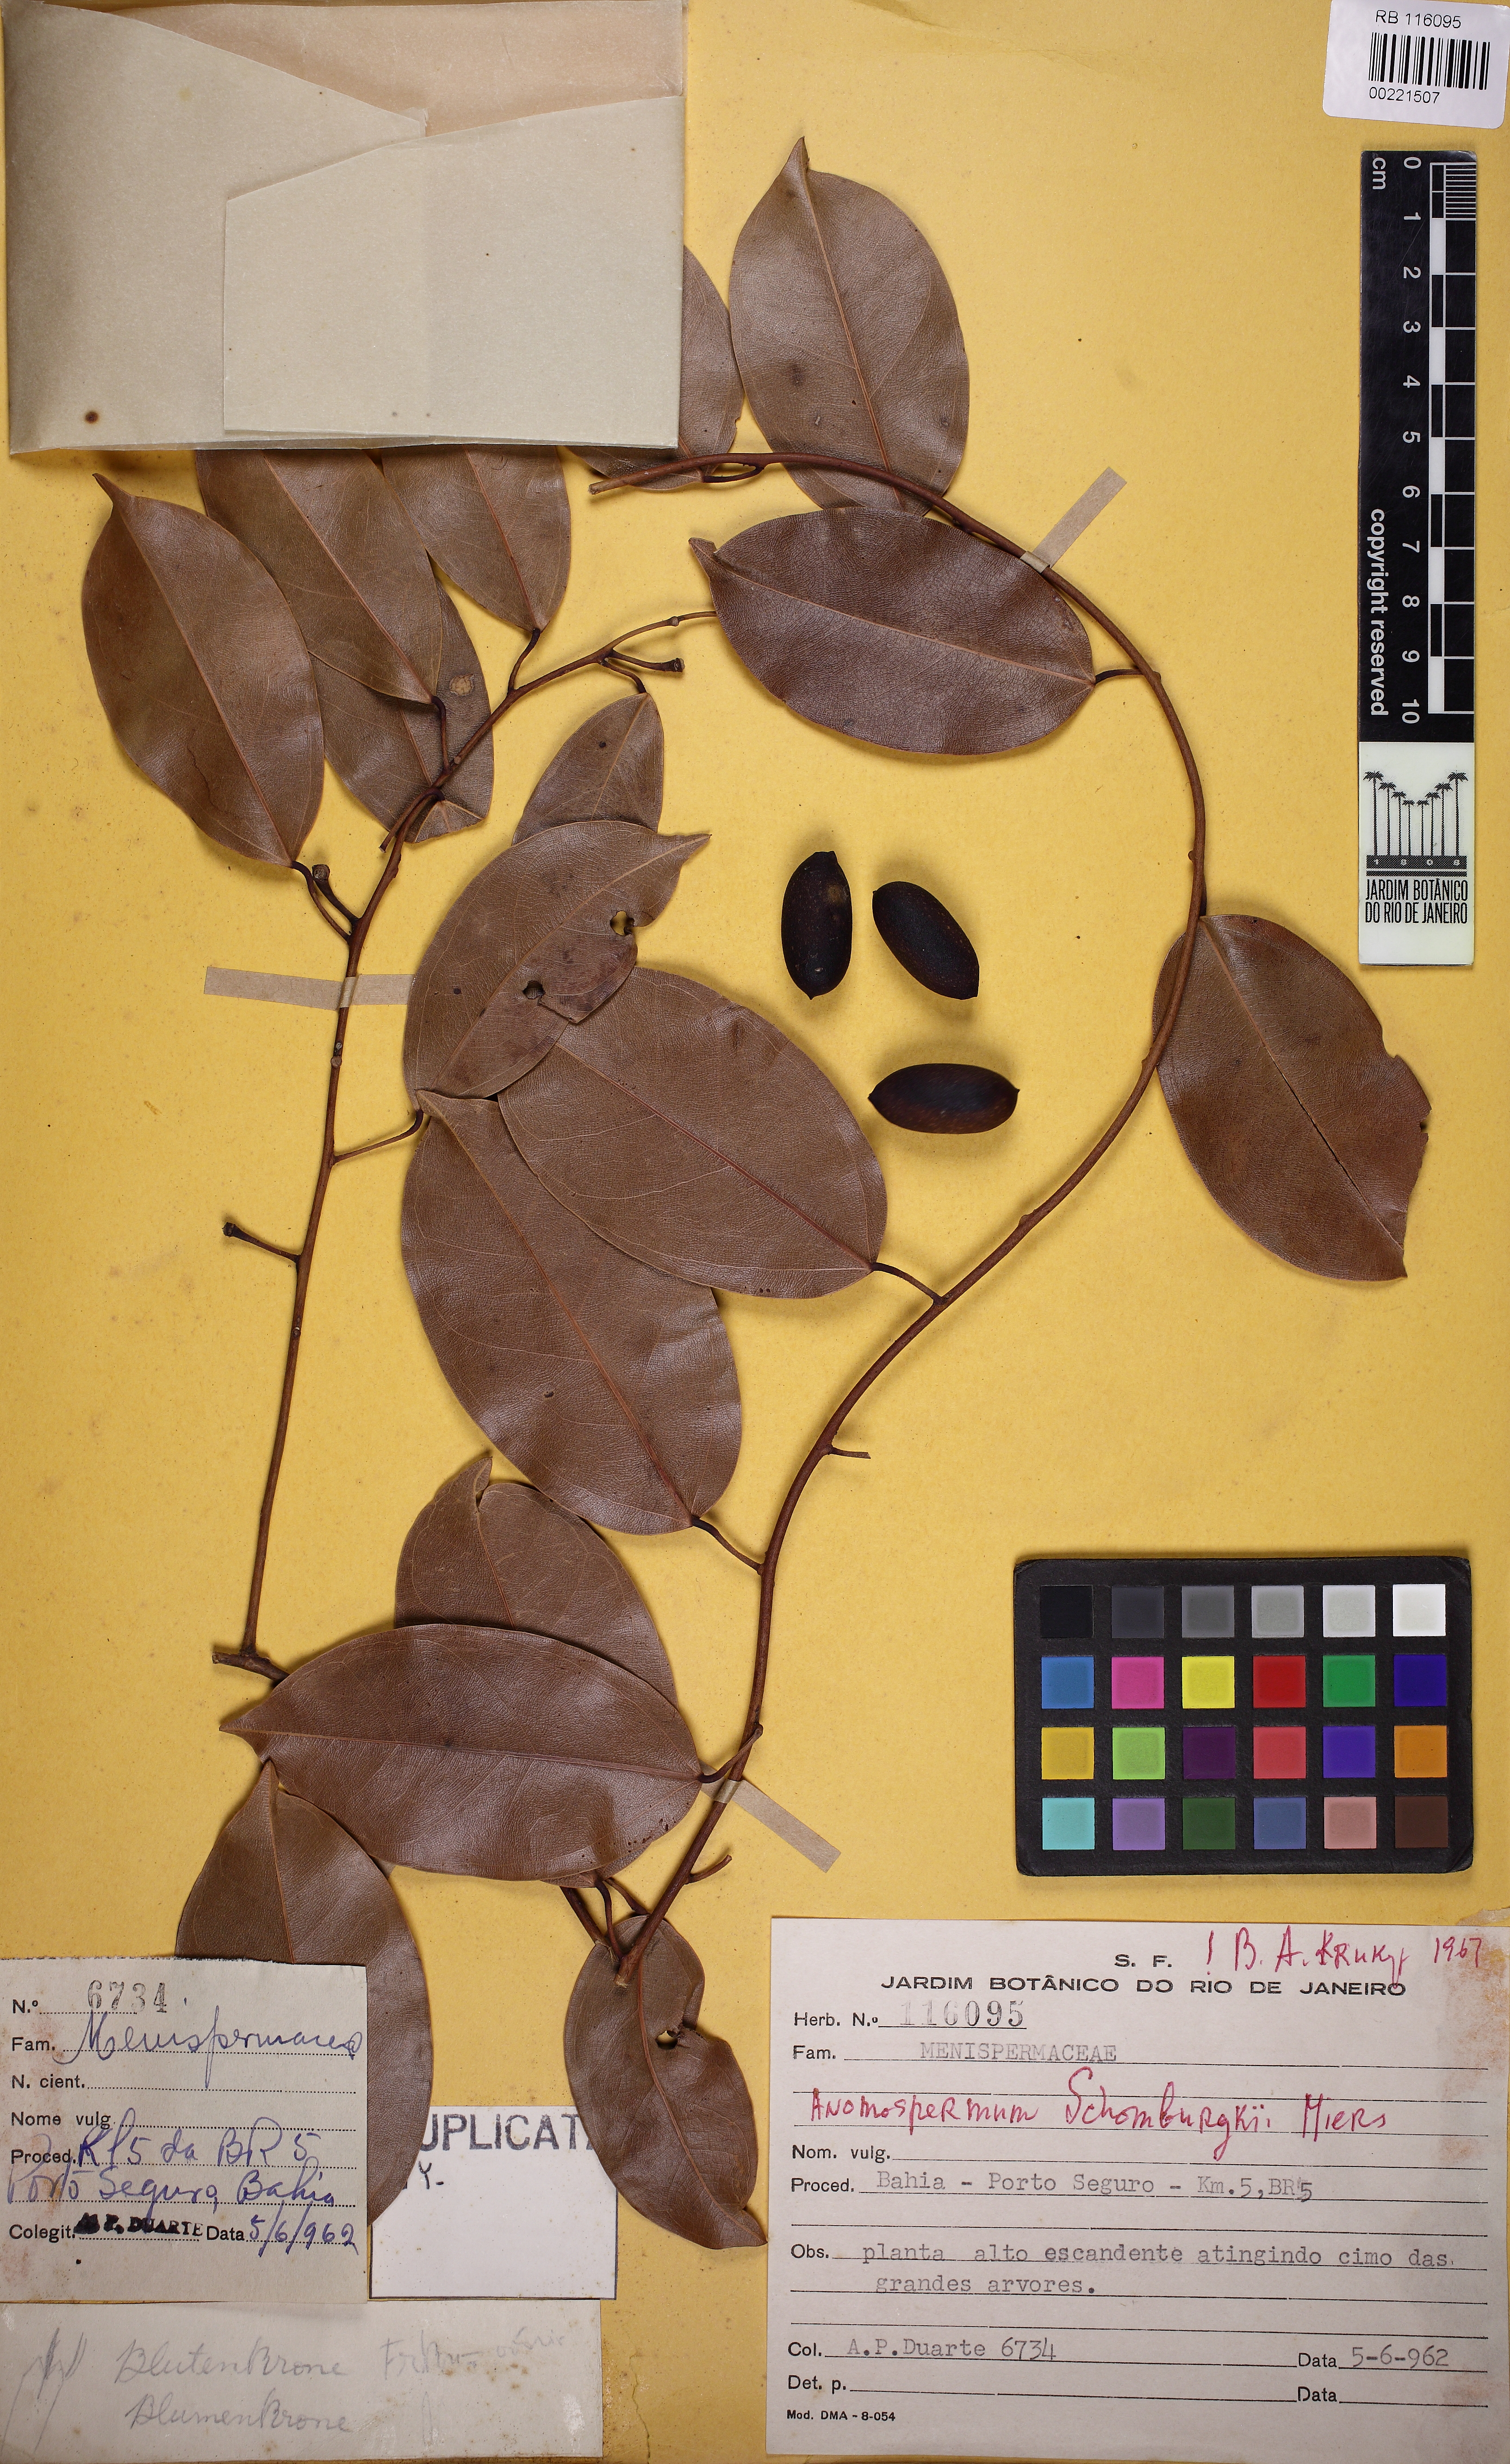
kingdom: Plantae
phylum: Tracheophyta
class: Magnoliopsida
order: Ranunculales
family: Menispermaceae
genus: Orthomene
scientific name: Orthomene schomburgkii
